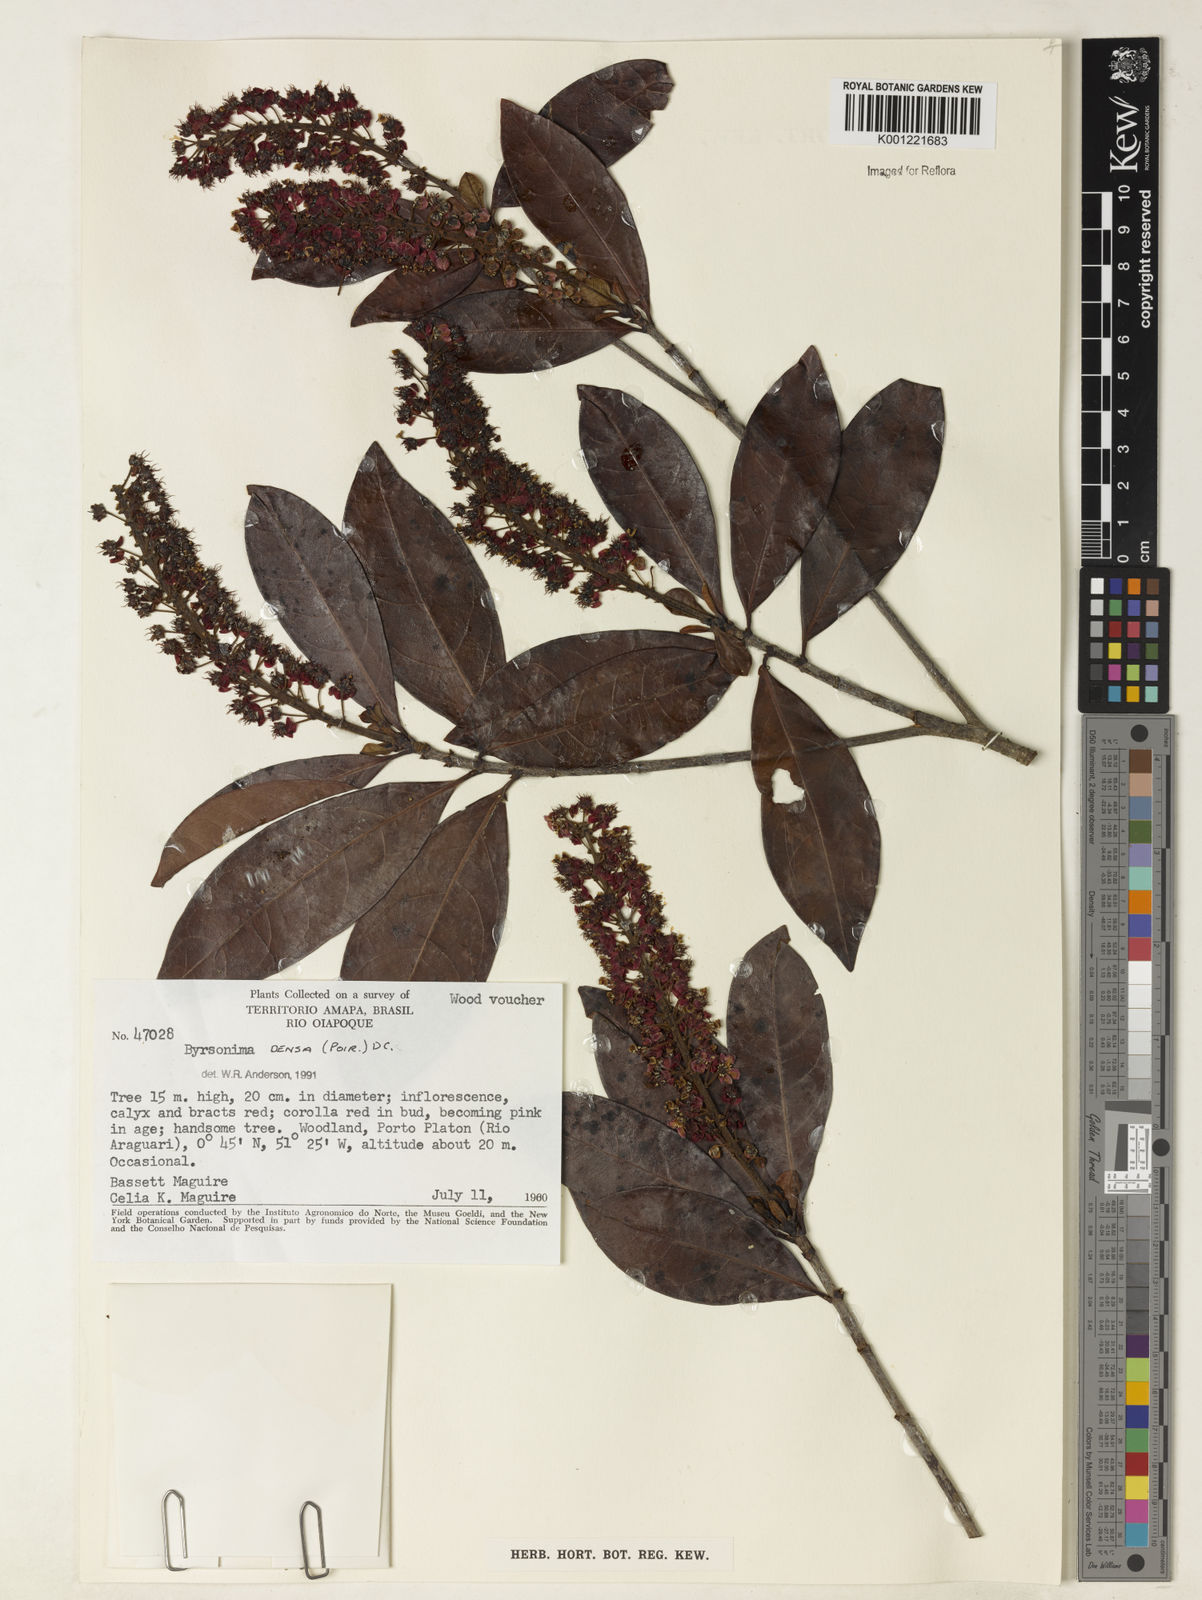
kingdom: Plantae
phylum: Tracheophyta
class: Magnoliopsida
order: Malpighiales
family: Malpighiaceae
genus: Byrsonima
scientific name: Byrsonima densa
